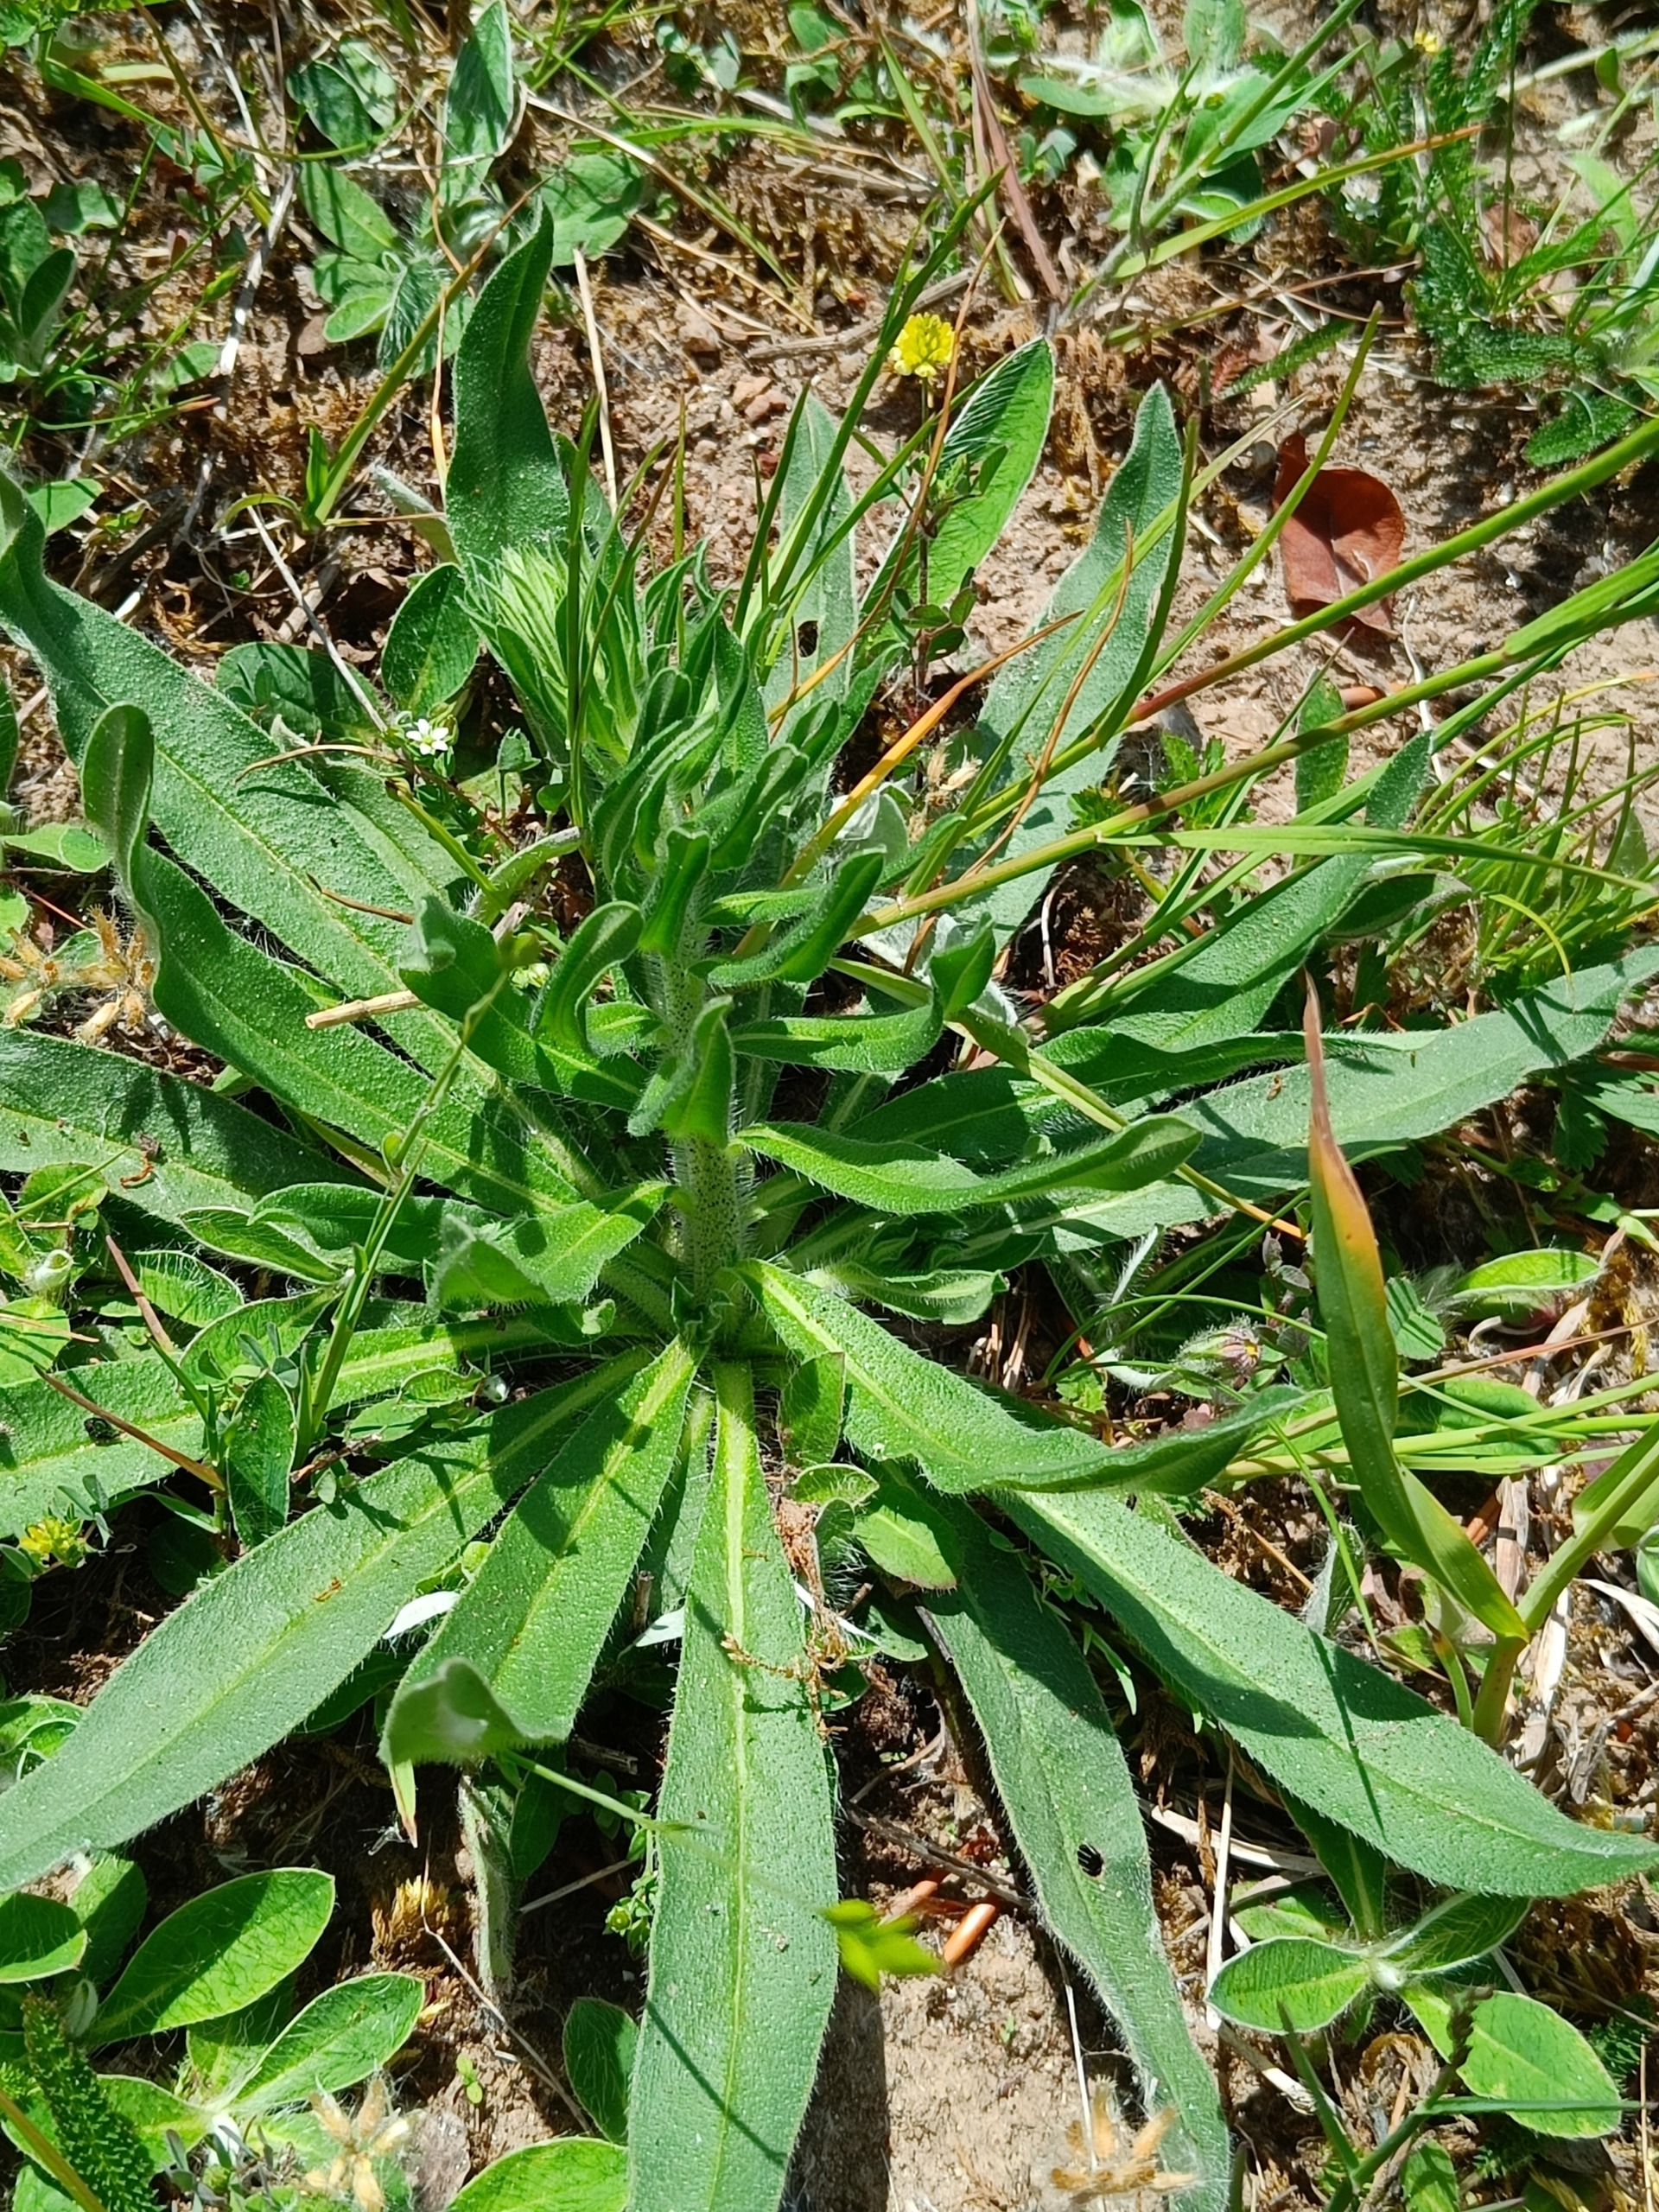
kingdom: Plantae
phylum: Tracheophyta
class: Magnoliopsida
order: Boraginales
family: Boraginaceae
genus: Echium
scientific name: Echium vulgare
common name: Slangehoved
